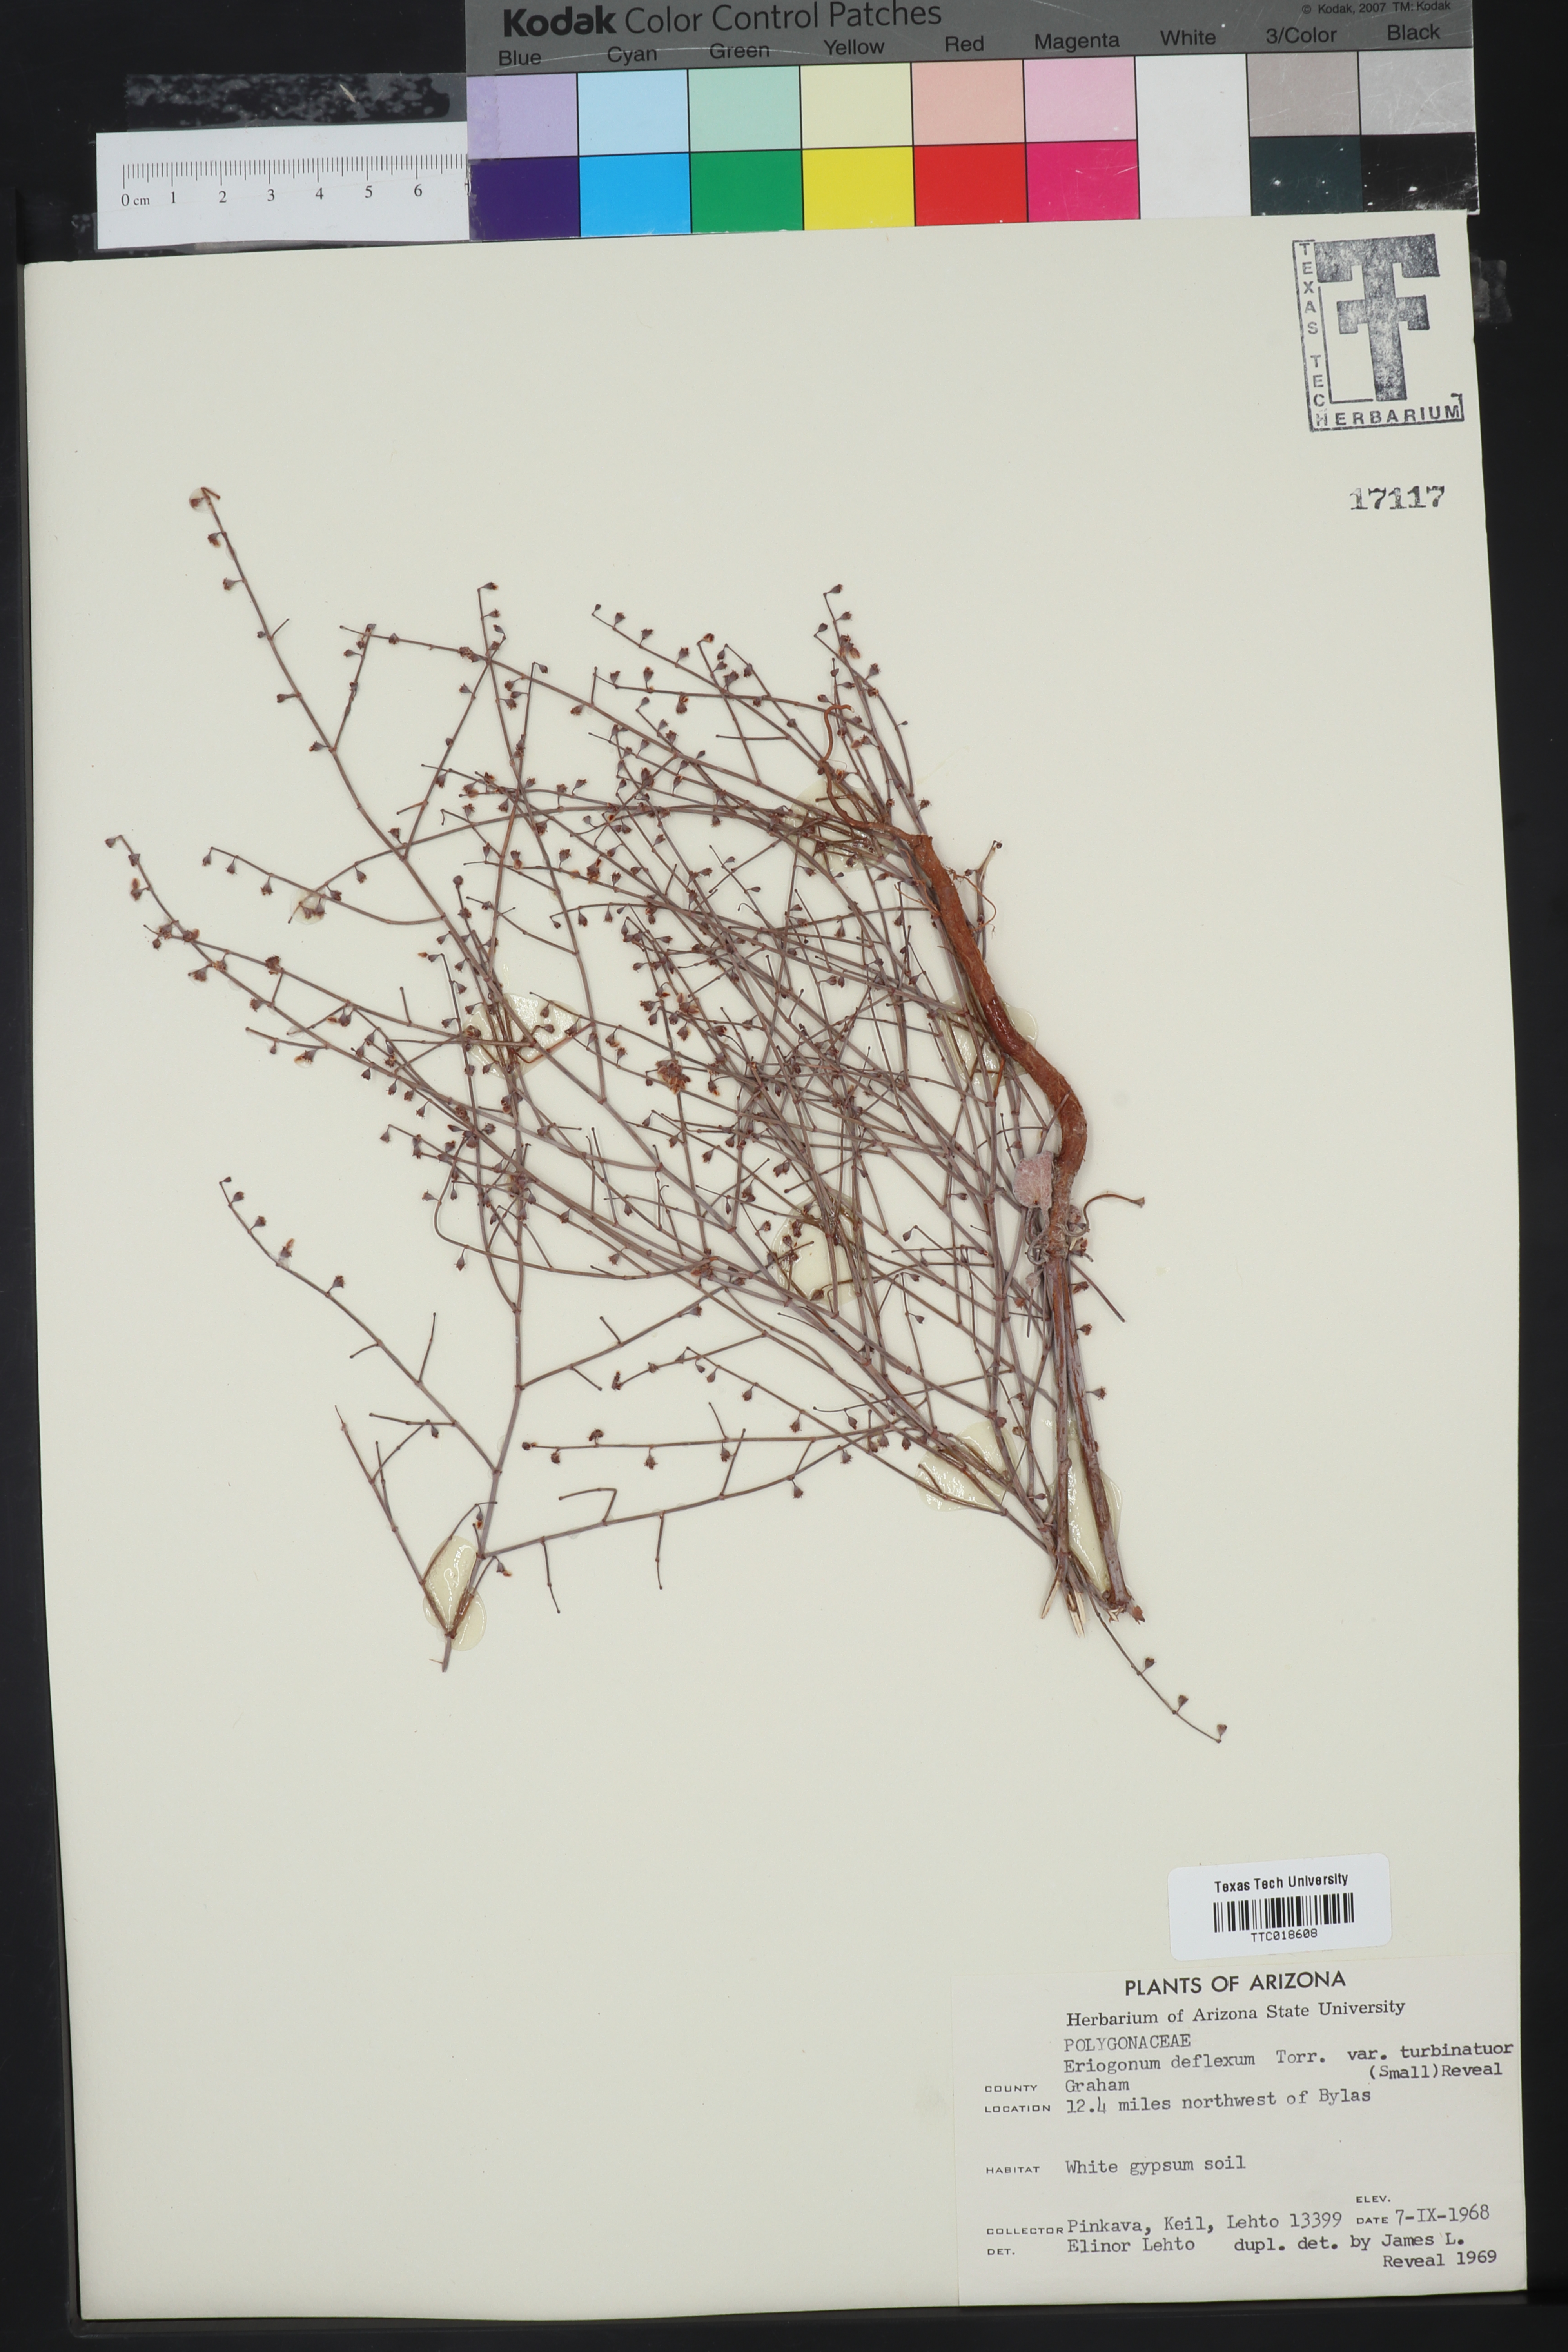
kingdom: Plantae
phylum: Tracheophyta
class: Magnoliopsida
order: Caryophyllales
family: Polygonaceae
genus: Eriogonum
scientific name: Eriogonum
